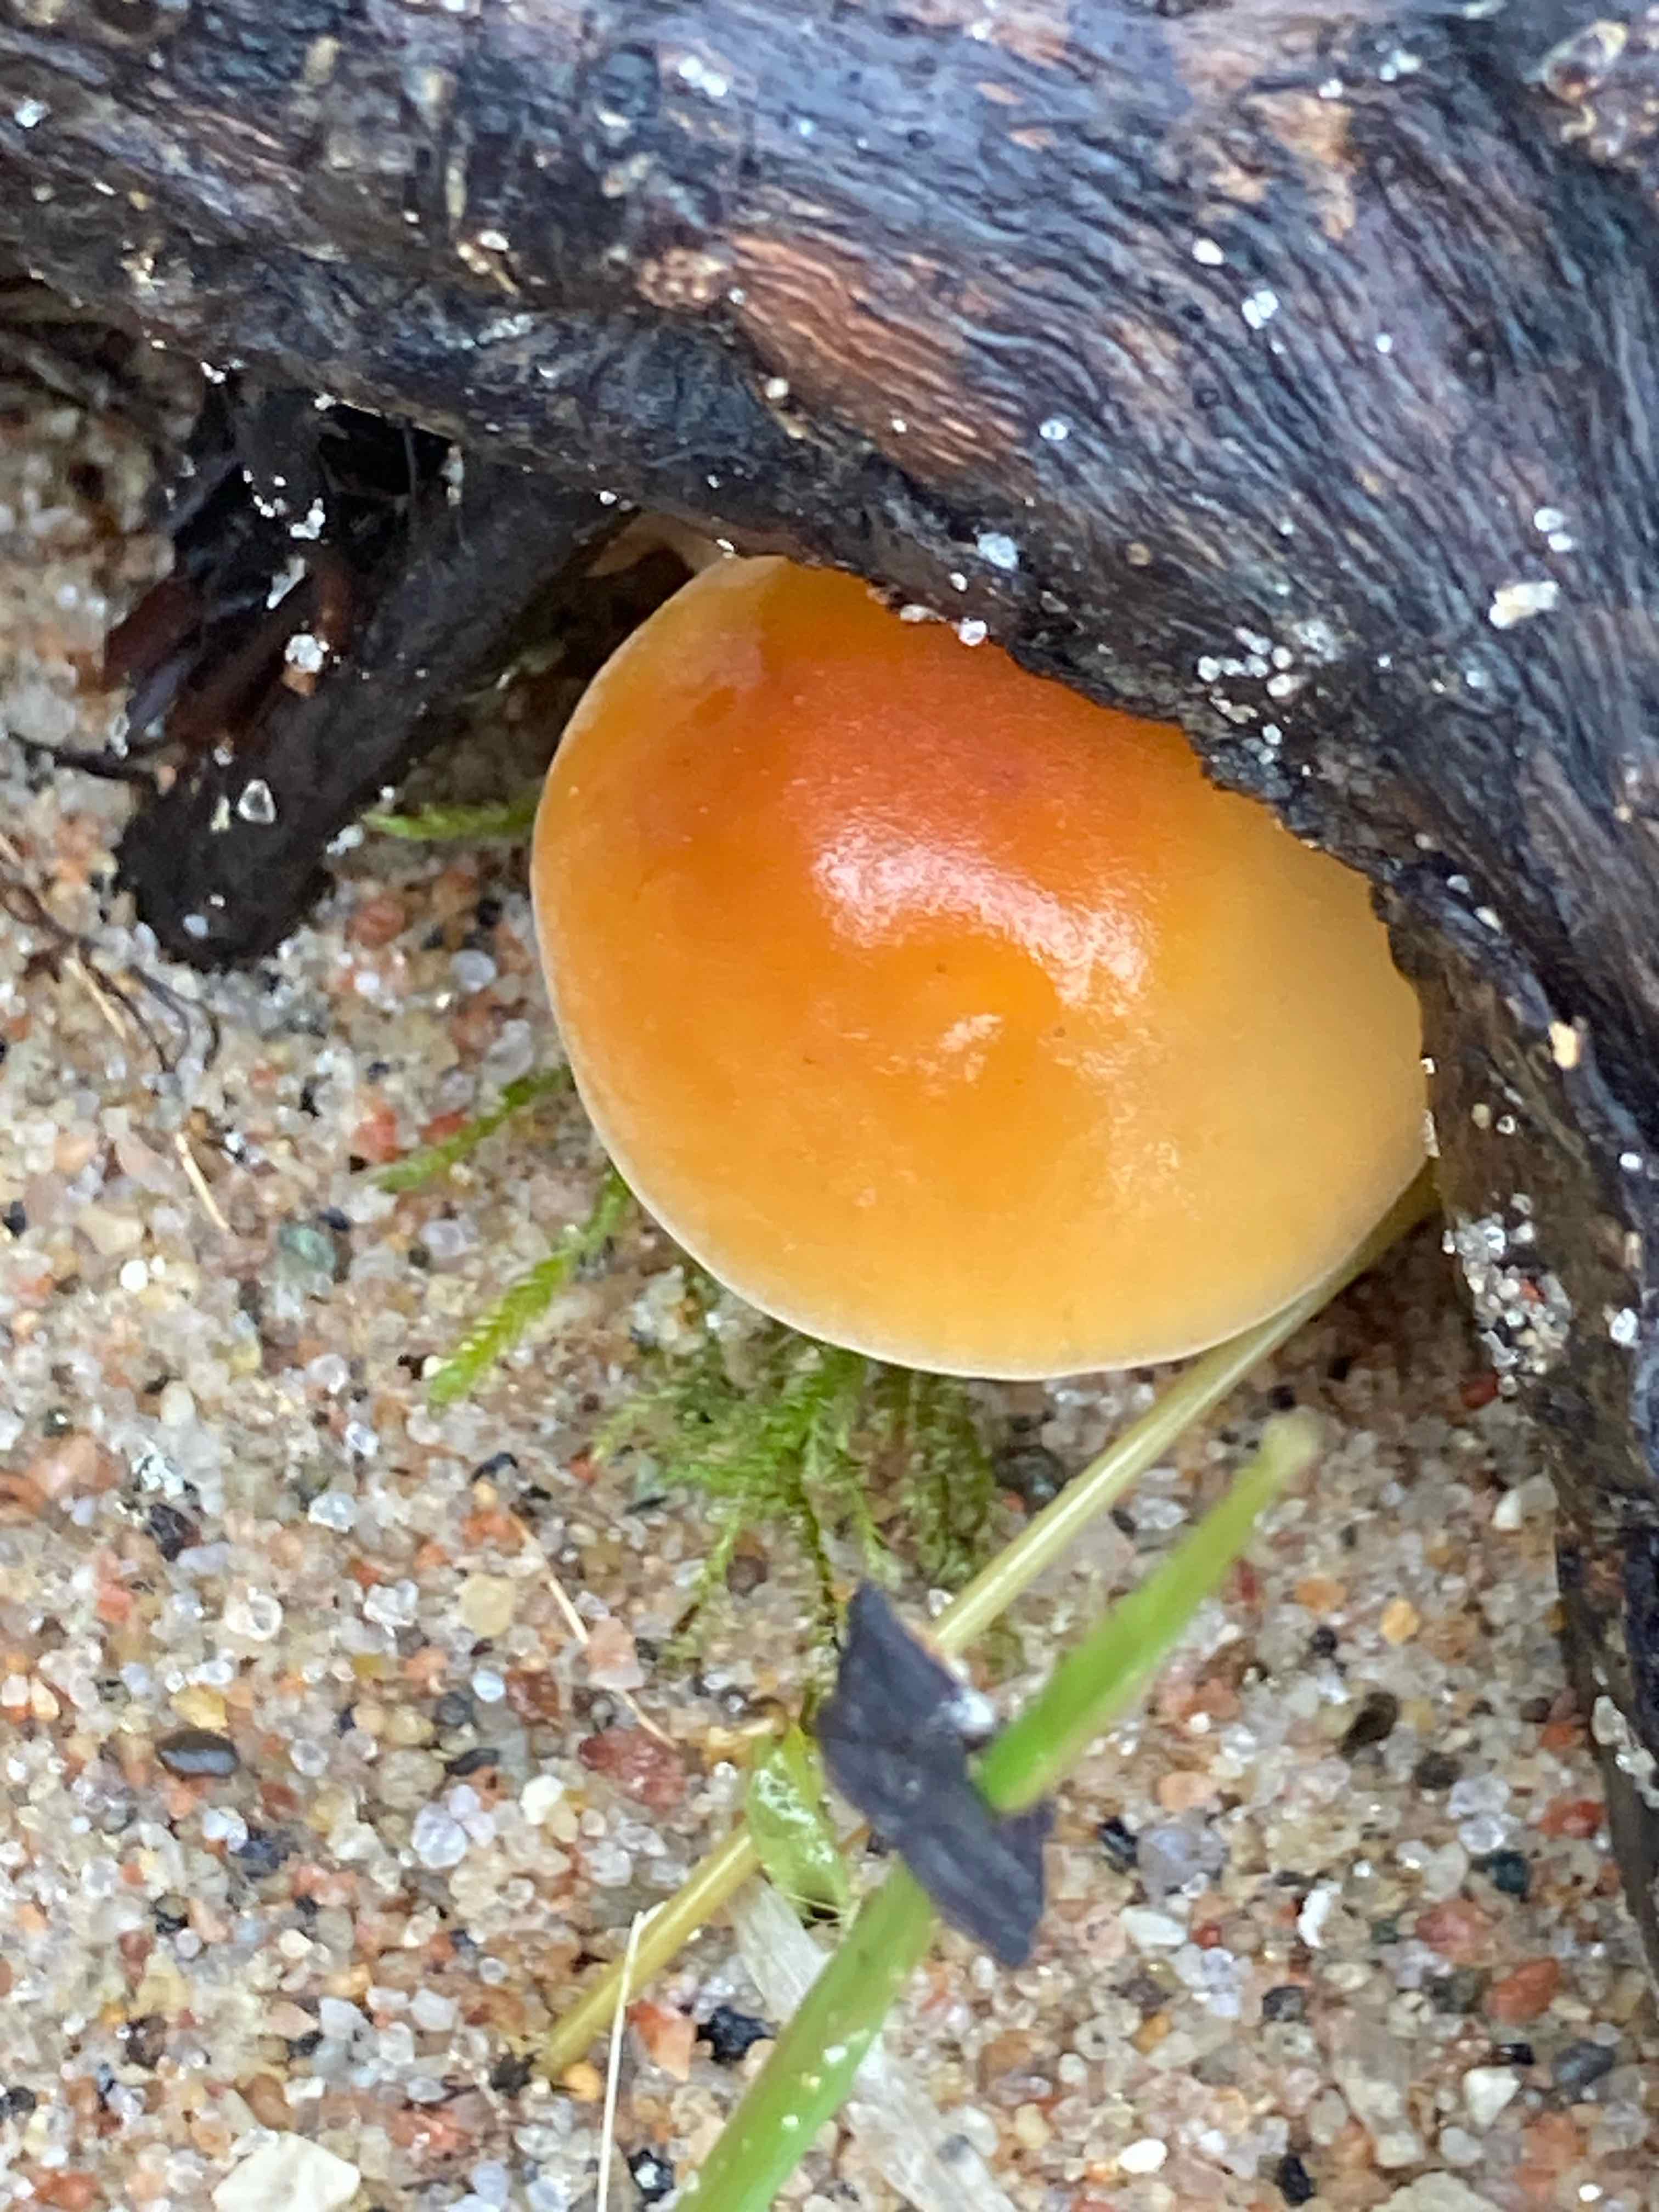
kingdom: Fungi
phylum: Basidiomycota
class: Agaricomycetes
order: Agaricales
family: Physalacriaceae
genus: Flammulina
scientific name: Flammulina
